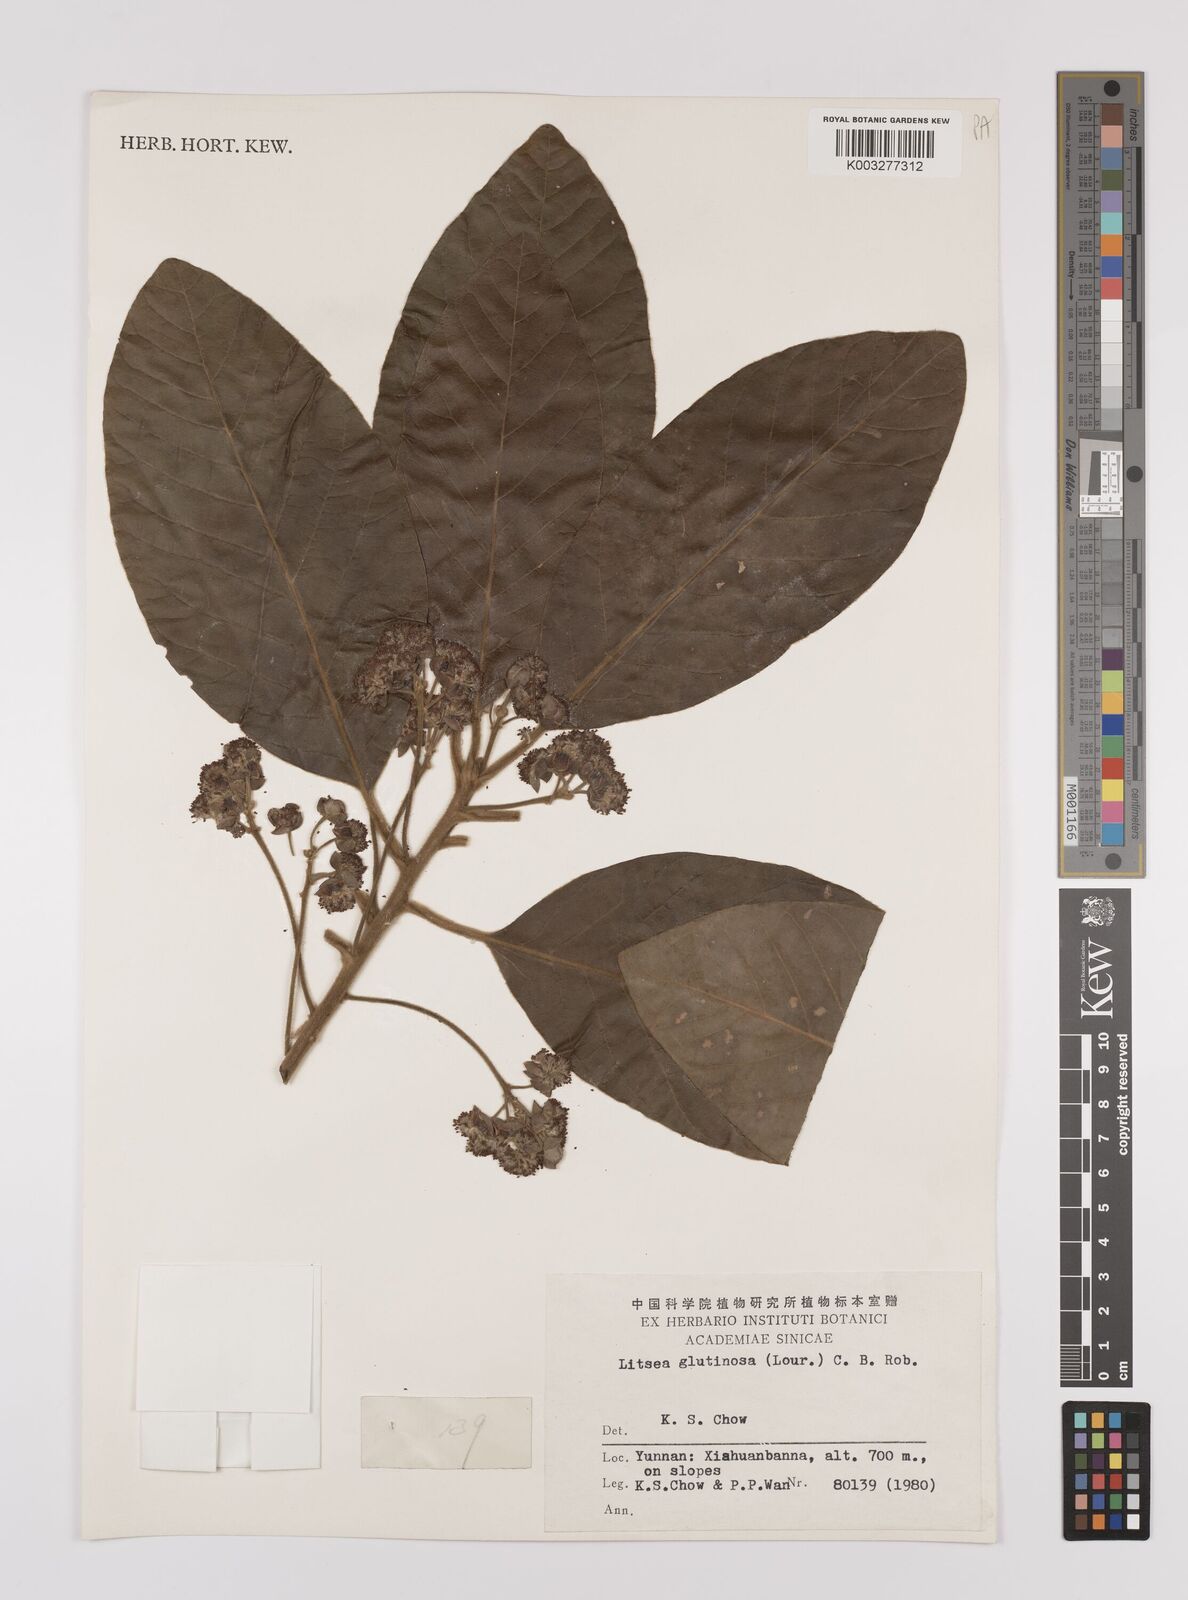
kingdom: Plantae
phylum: Tracheophyta
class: Magnoliopsida
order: Laurales
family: Lauraceae
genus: Litsea
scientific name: Litsea glutinosa
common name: Indian-laurel
